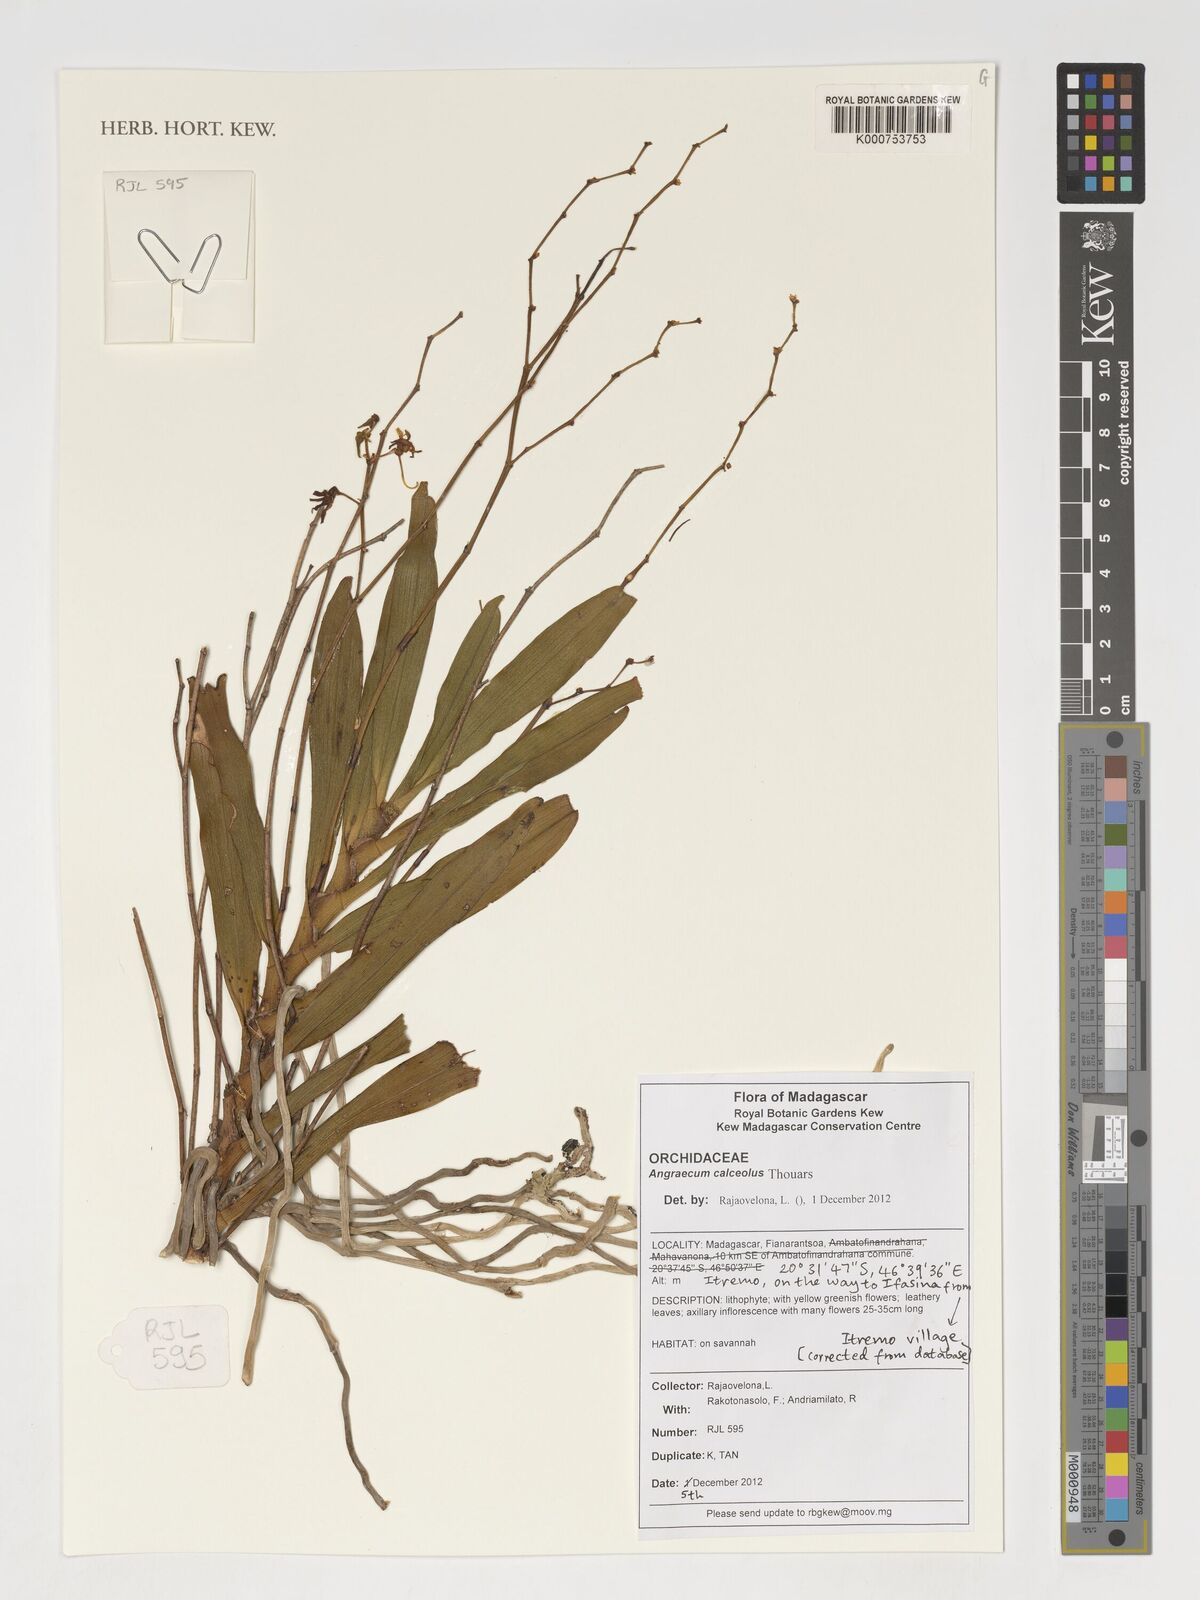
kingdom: Plantae
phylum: Tracheophyta
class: Liliopsida
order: Asparagales
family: Orchidaceae
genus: Angraecum
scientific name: Angraecum calceolus
